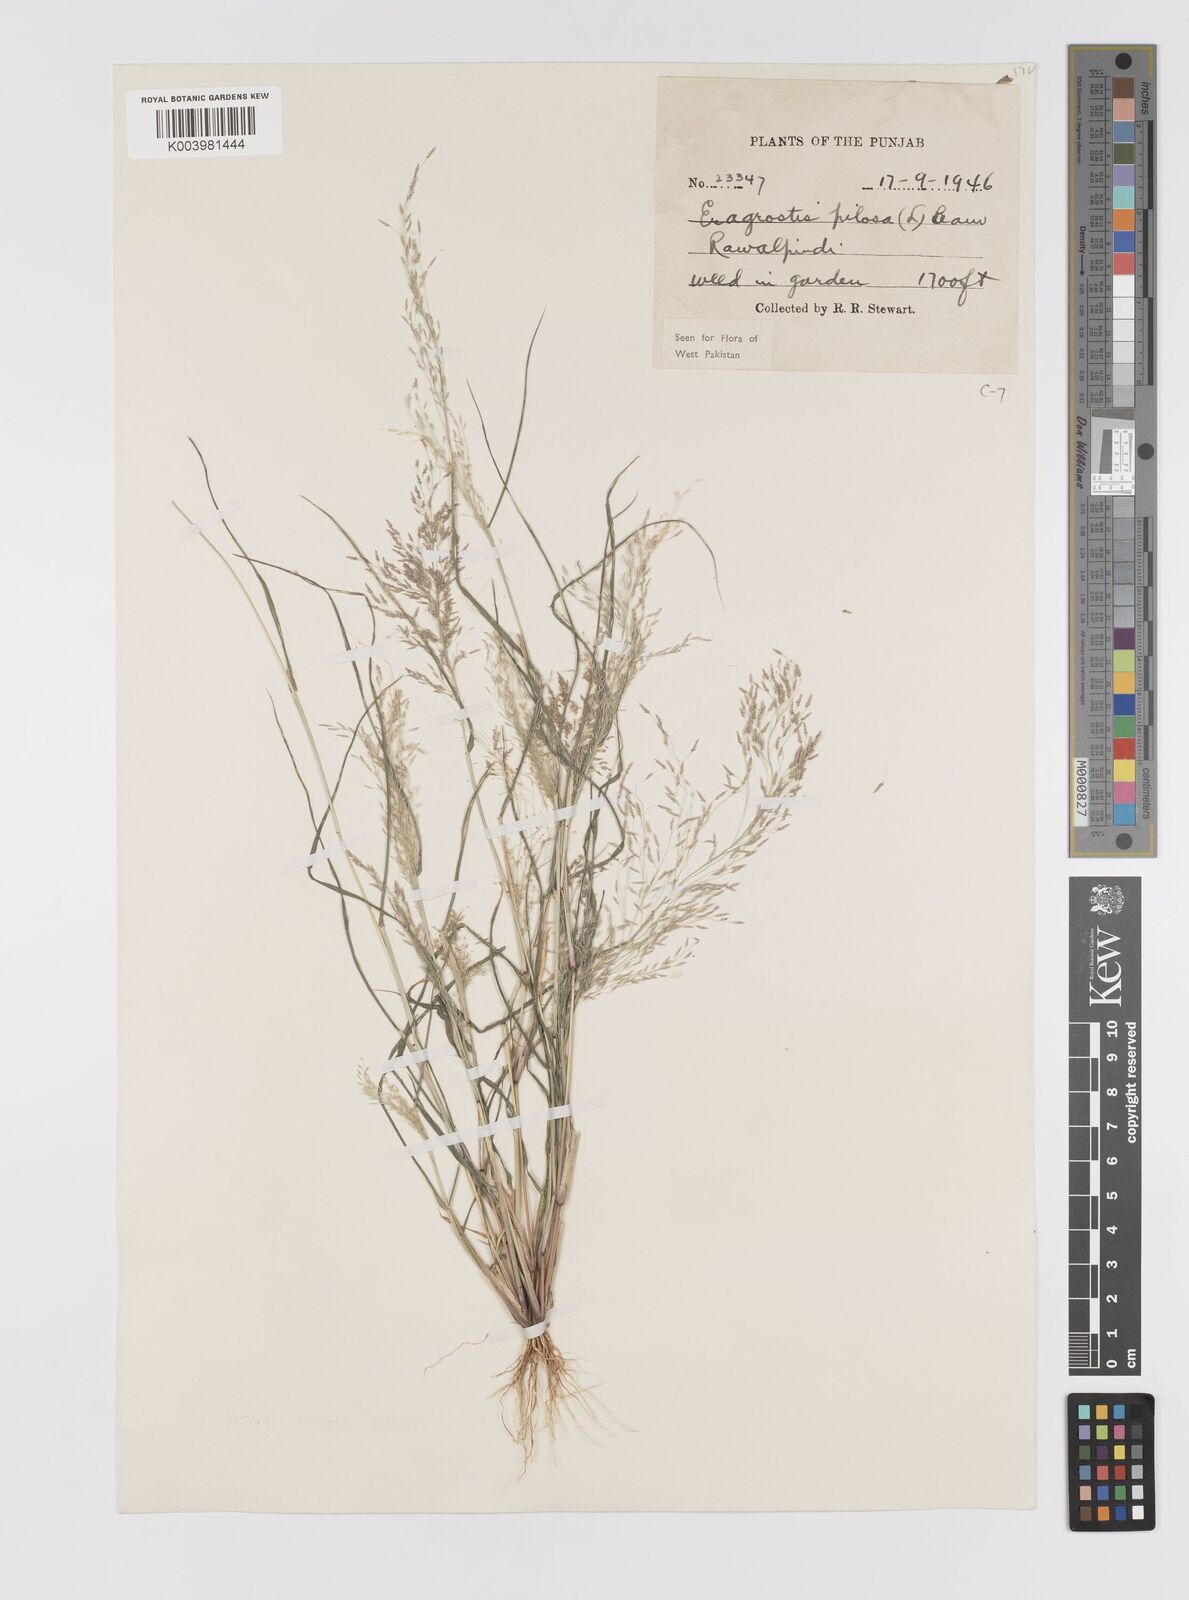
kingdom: Plantae
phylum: Tracheophyta
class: Liliopsida
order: Poales
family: Poaceae
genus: Eragrostis
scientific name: Eragrostis pilosa
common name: Indian lovegrass
